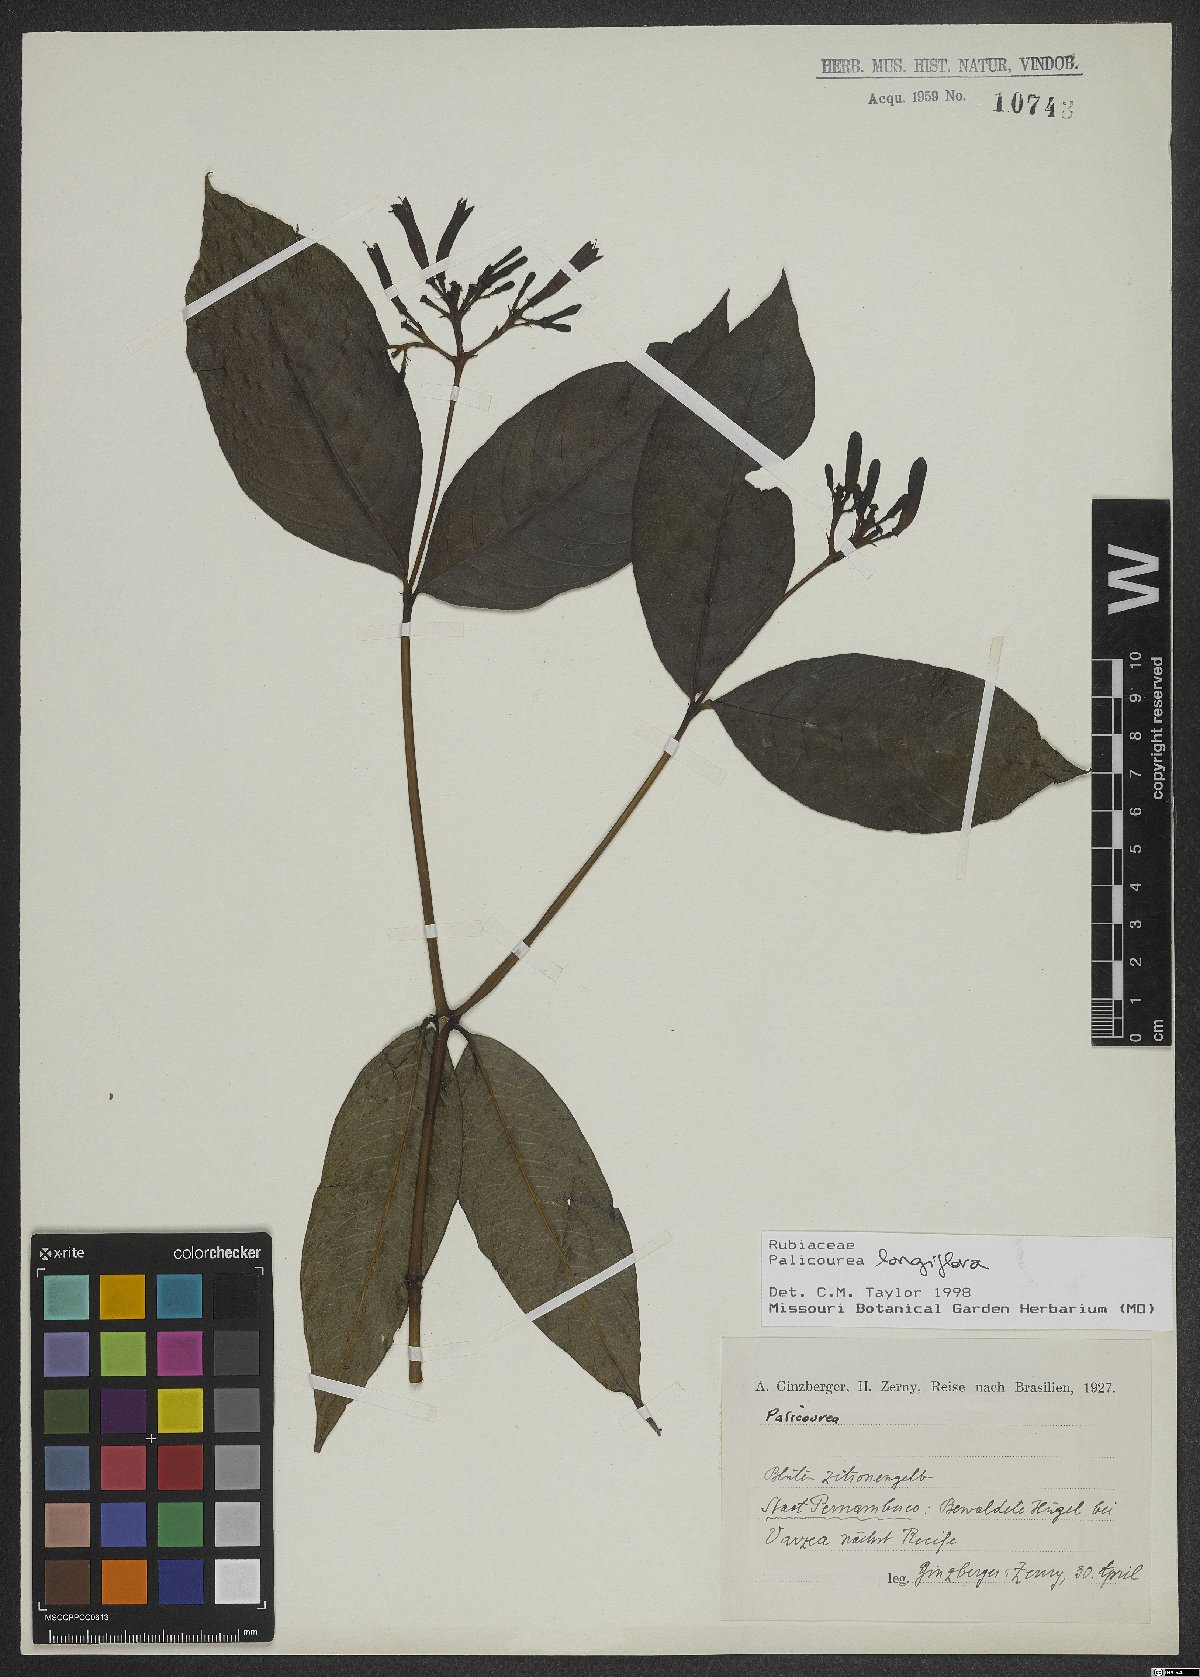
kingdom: Plantae
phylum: Tracheophyta
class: Magnoliopsida
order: Gentianales
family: Rubiaceae
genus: Palicourea
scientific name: Palicourea longiflora
